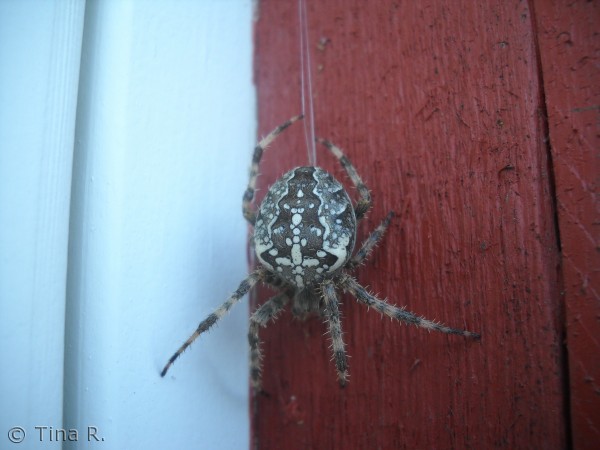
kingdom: Animalia
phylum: Arthropoda
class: Arachnida
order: Araneae
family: Araneidae
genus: Araneus
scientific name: Araneus diadematus
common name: Korsedderkop
